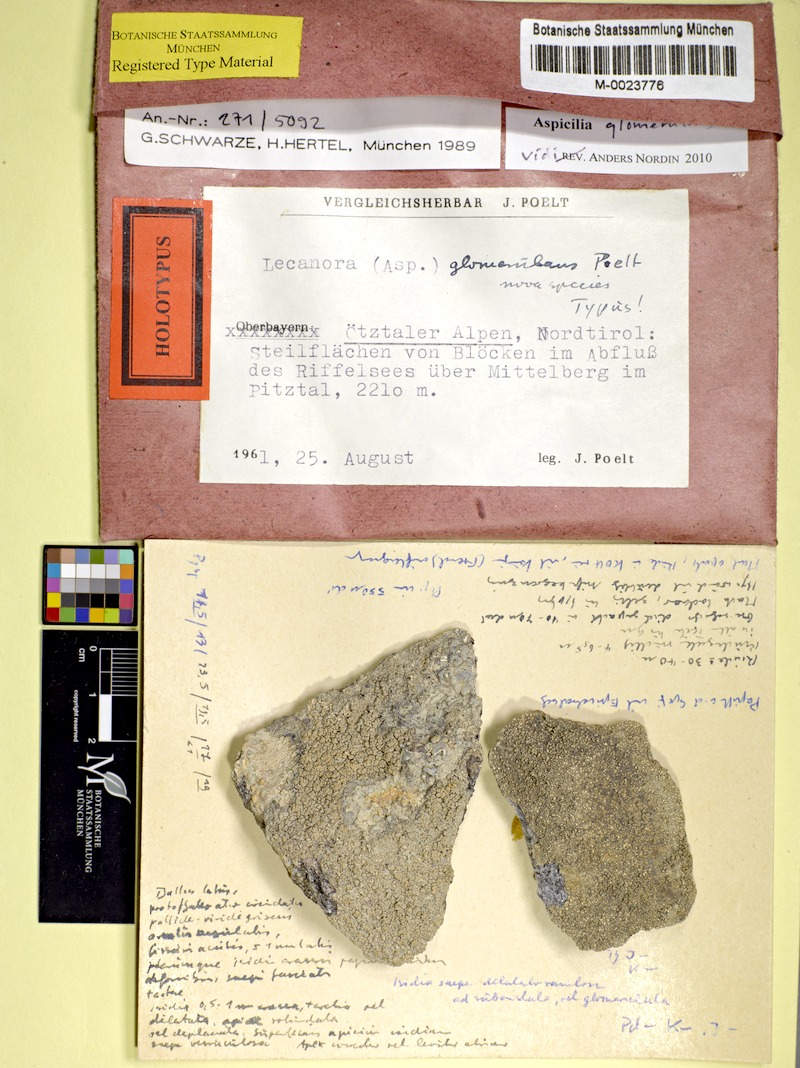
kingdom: Fungi
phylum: Ascomycota
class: Lecanoromycetes
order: Pertusariales
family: Megasporaceae
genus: Aspicilia
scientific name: Aspicilia
